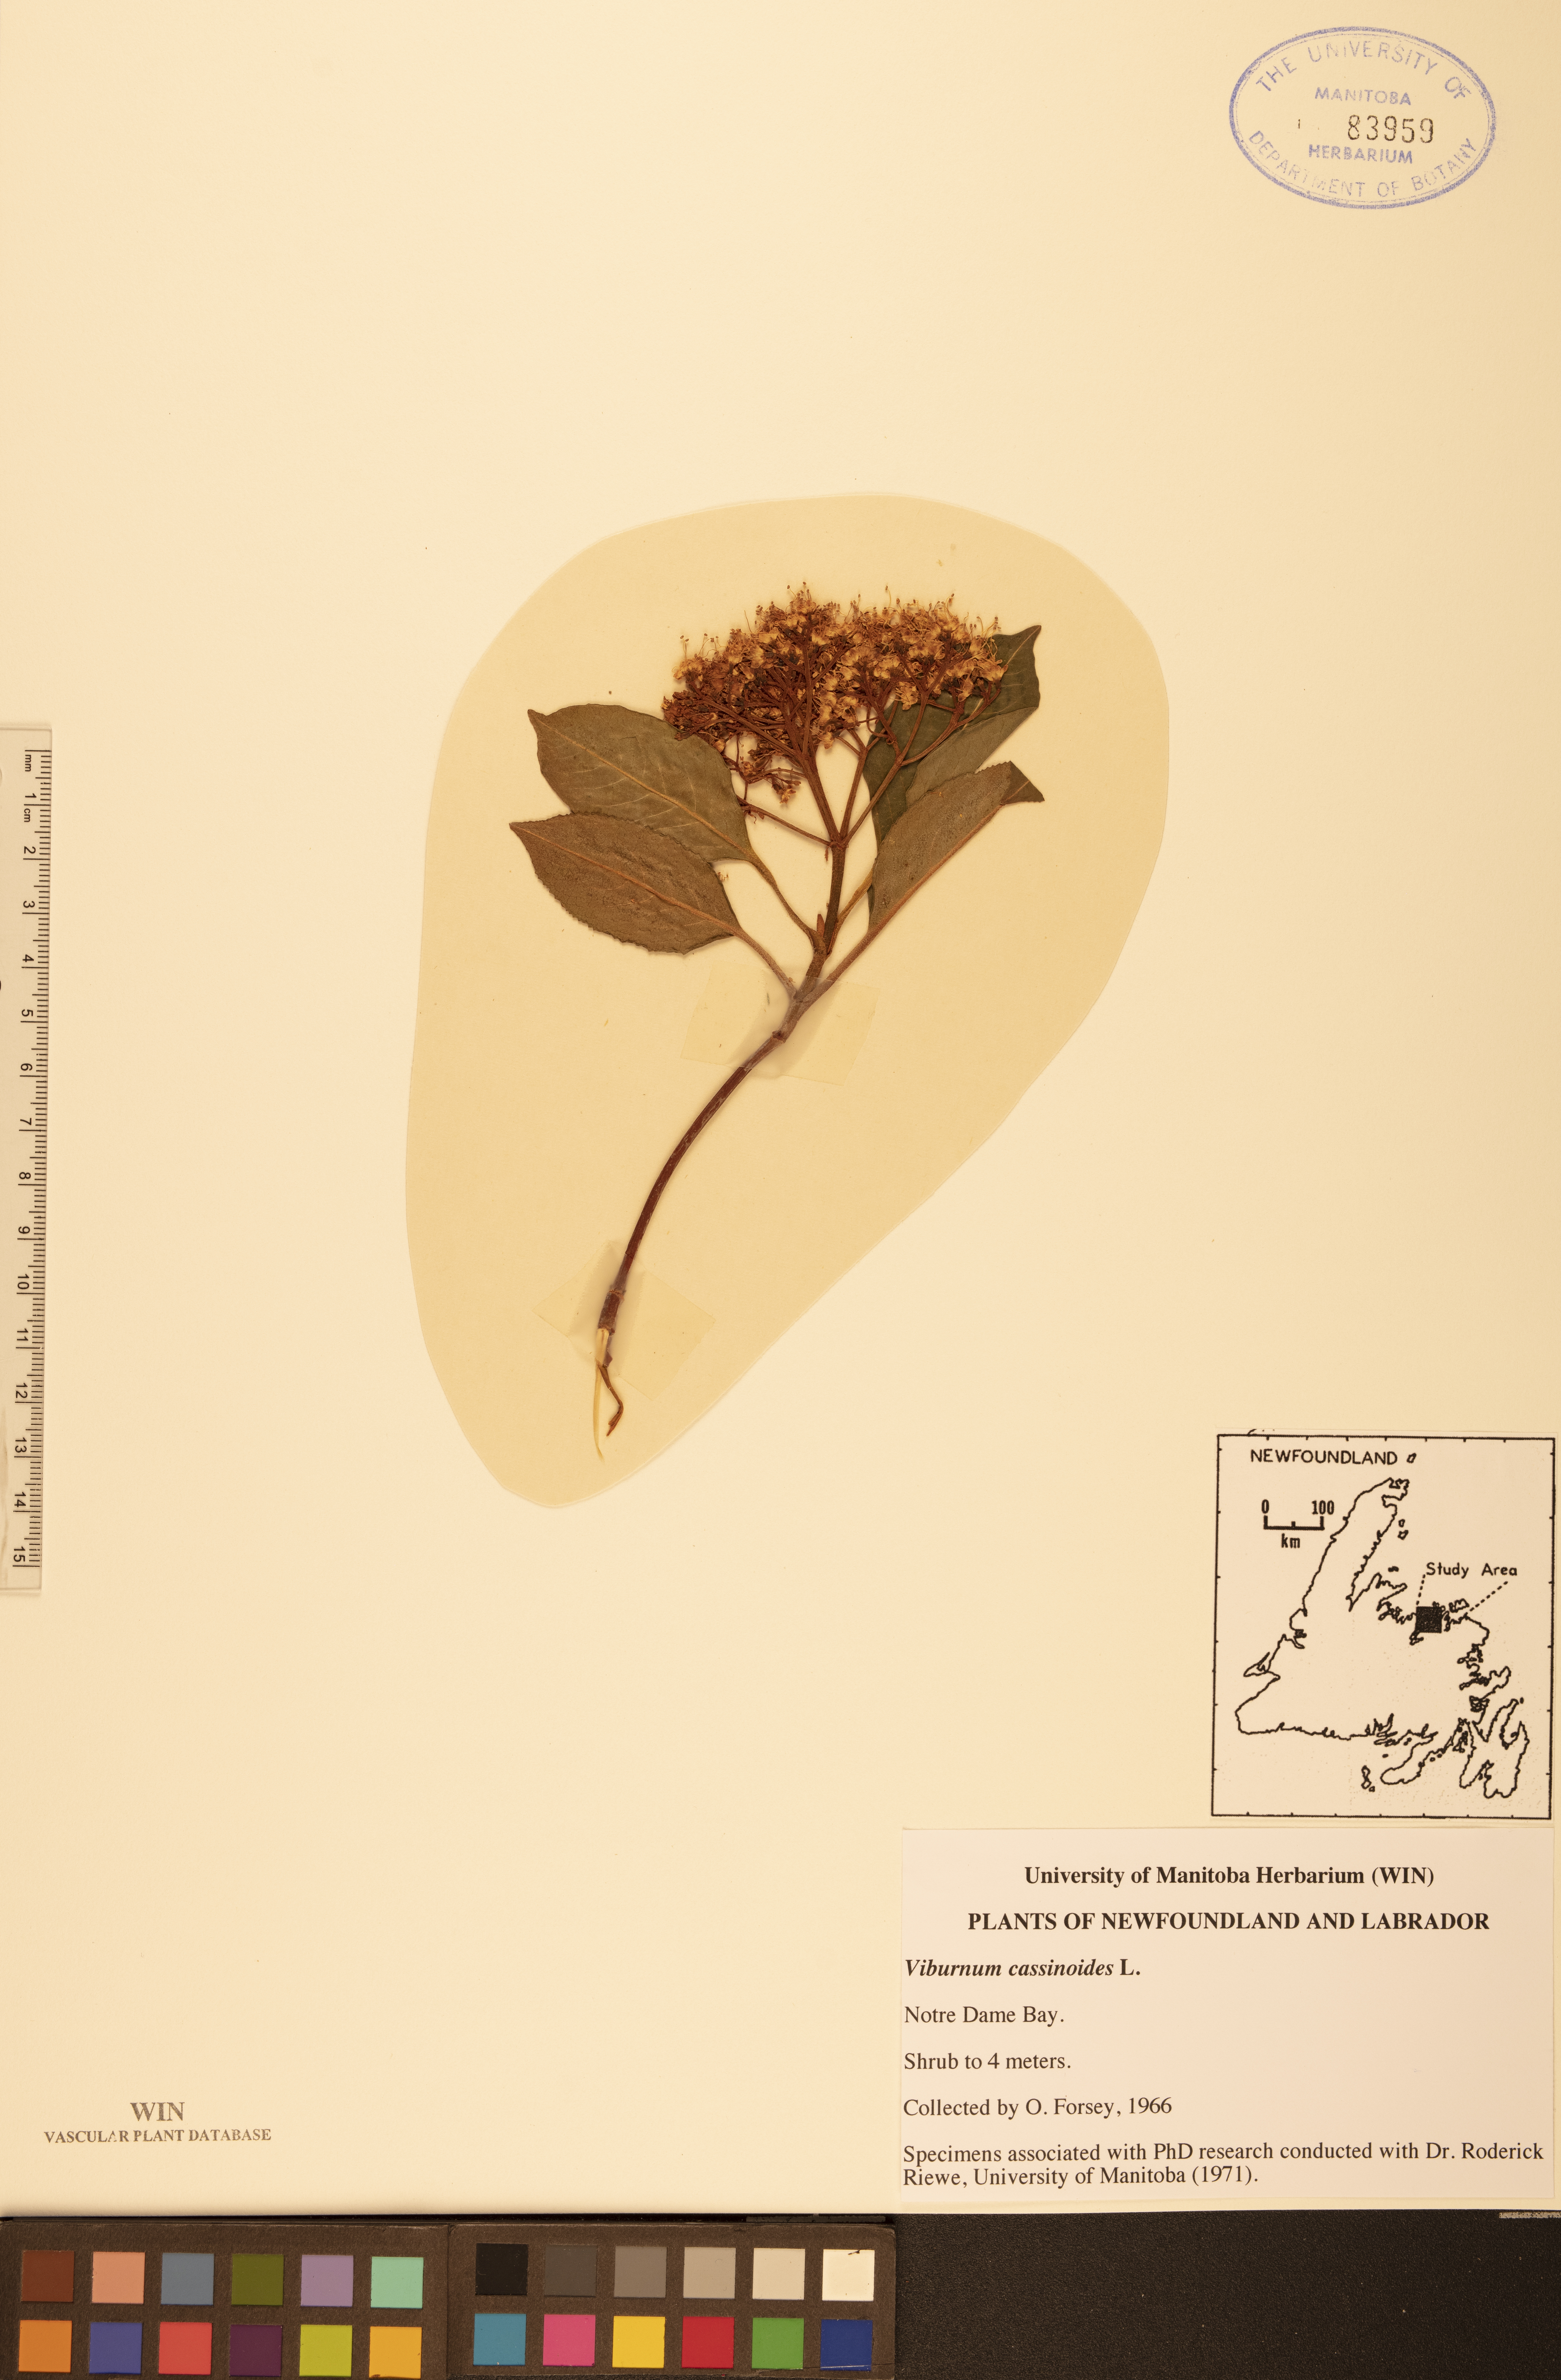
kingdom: Plantae
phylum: Tracheophyta
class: Magnoliopsida
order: Dipsacales
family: Viburnaceae
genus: Viburnum
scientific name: Viburnum cassinoides
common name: Swamp haw
